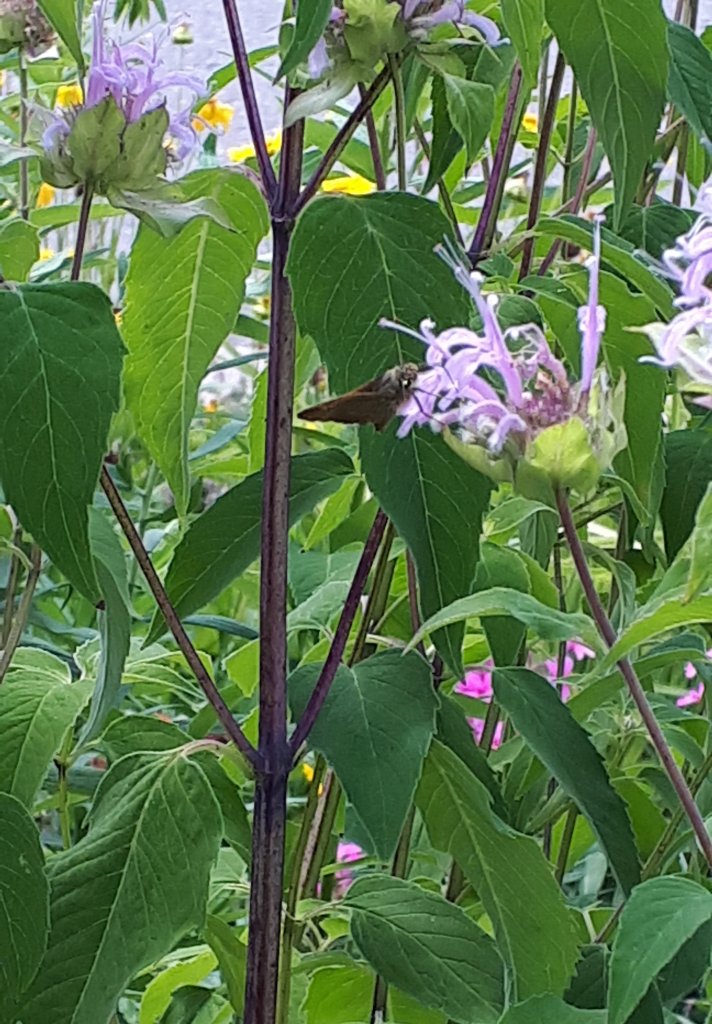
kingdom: Animalia
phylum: Arthropoda
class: Insecta
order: Lepidoptera
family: Hesperiidae
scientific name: Hesperiidae
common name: Skippers
